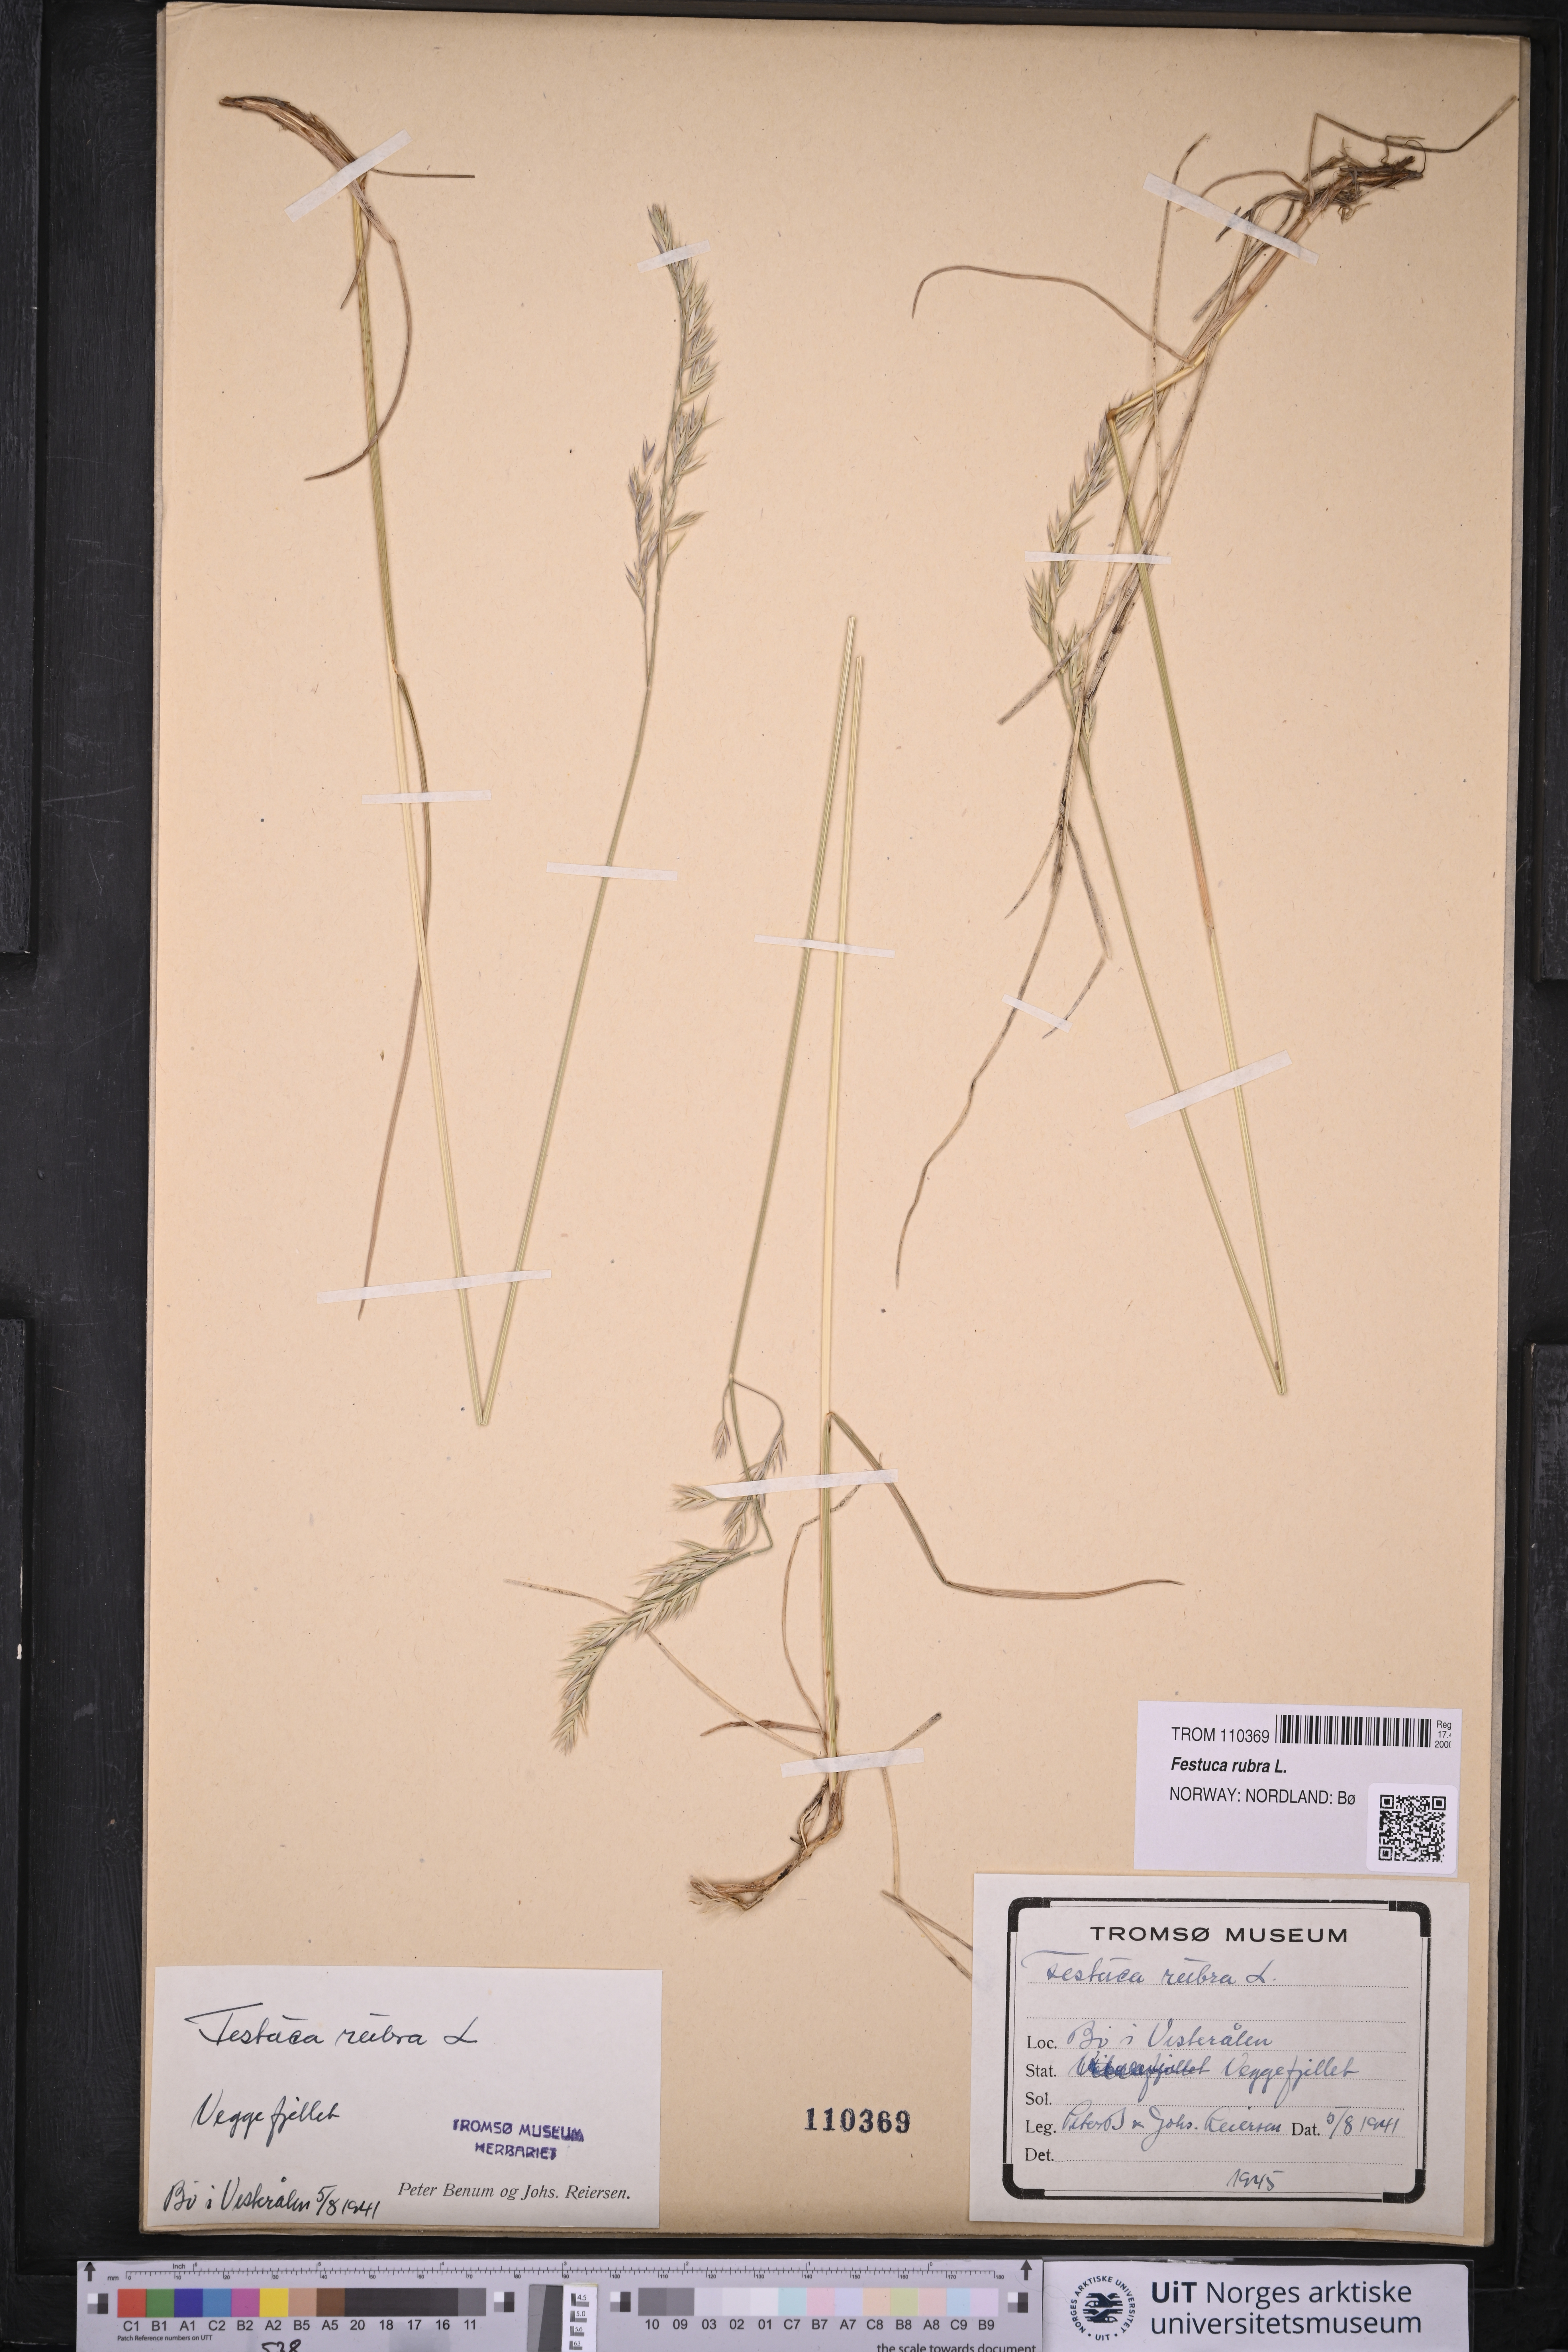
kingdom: Plantae
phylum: Tracheophyta
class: Liliopsida
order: Poales
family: Poaceae
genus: Festuca
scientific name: Festuca rubra
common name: Red fescue
